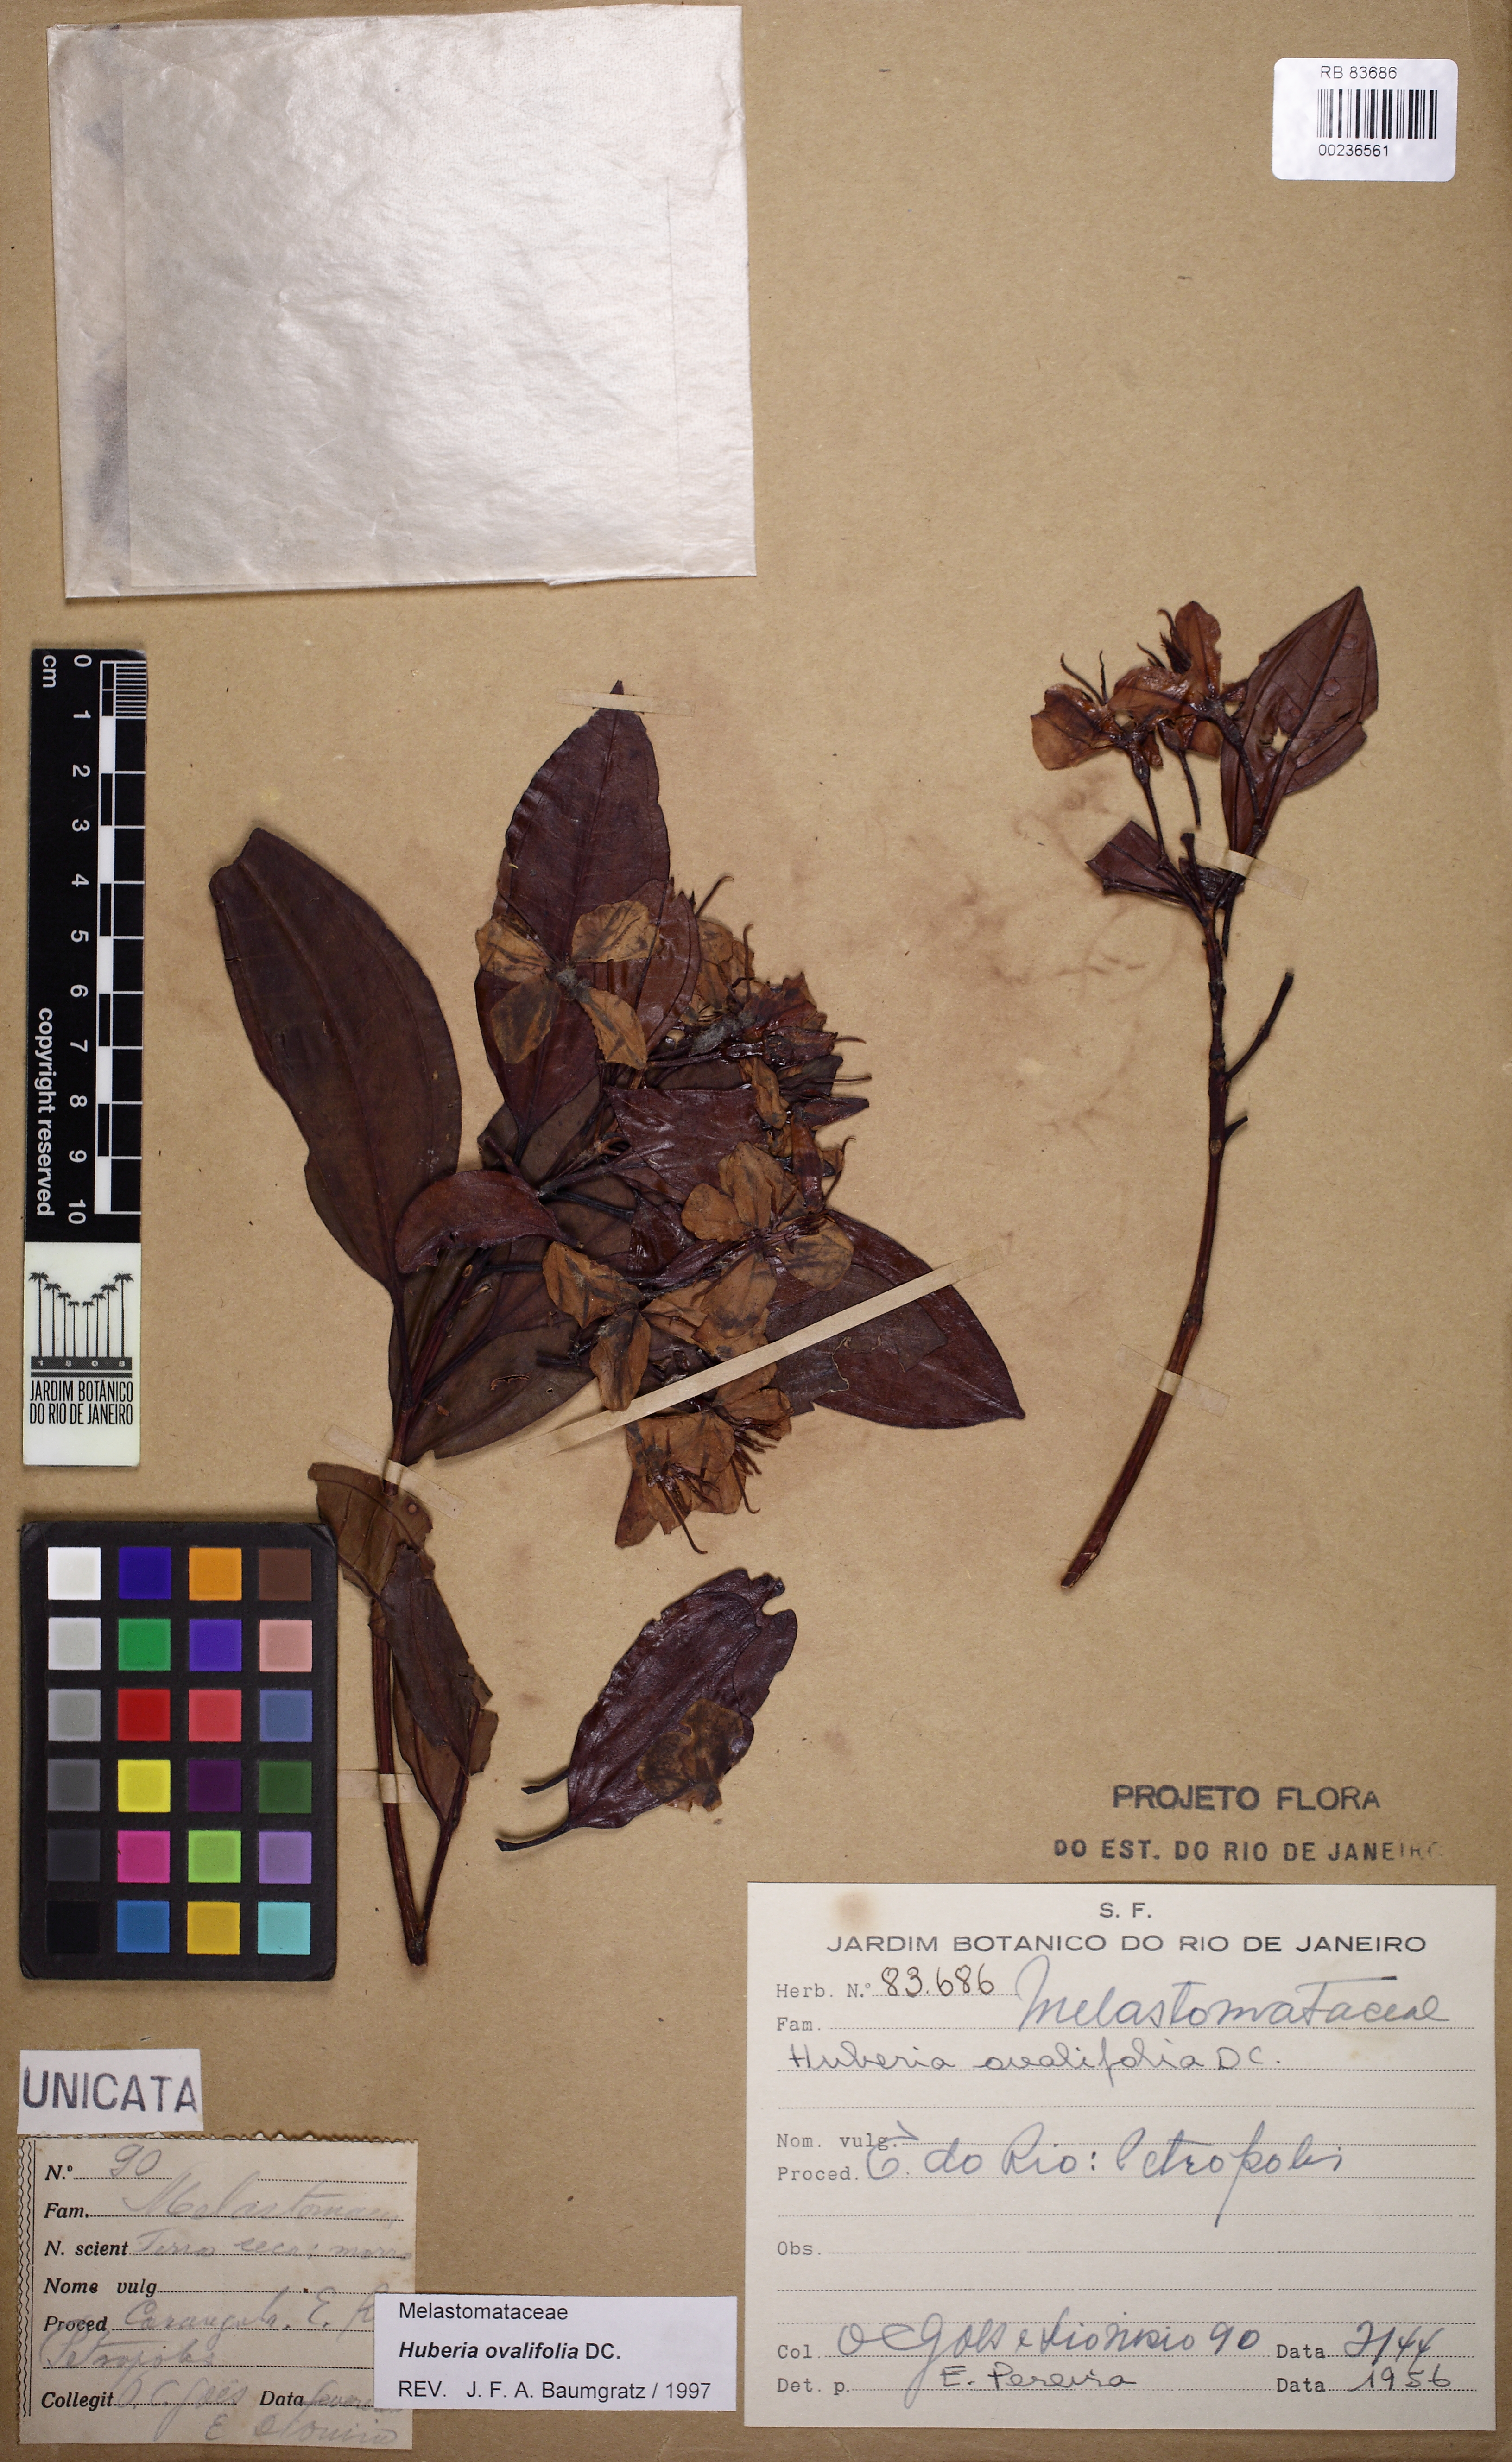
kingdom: Plantae
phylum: Tracheophyta
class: Magnoliopsida
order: Myrtales
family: Melastomataceae
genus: Huberia
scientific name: Huberia ovalifolia
